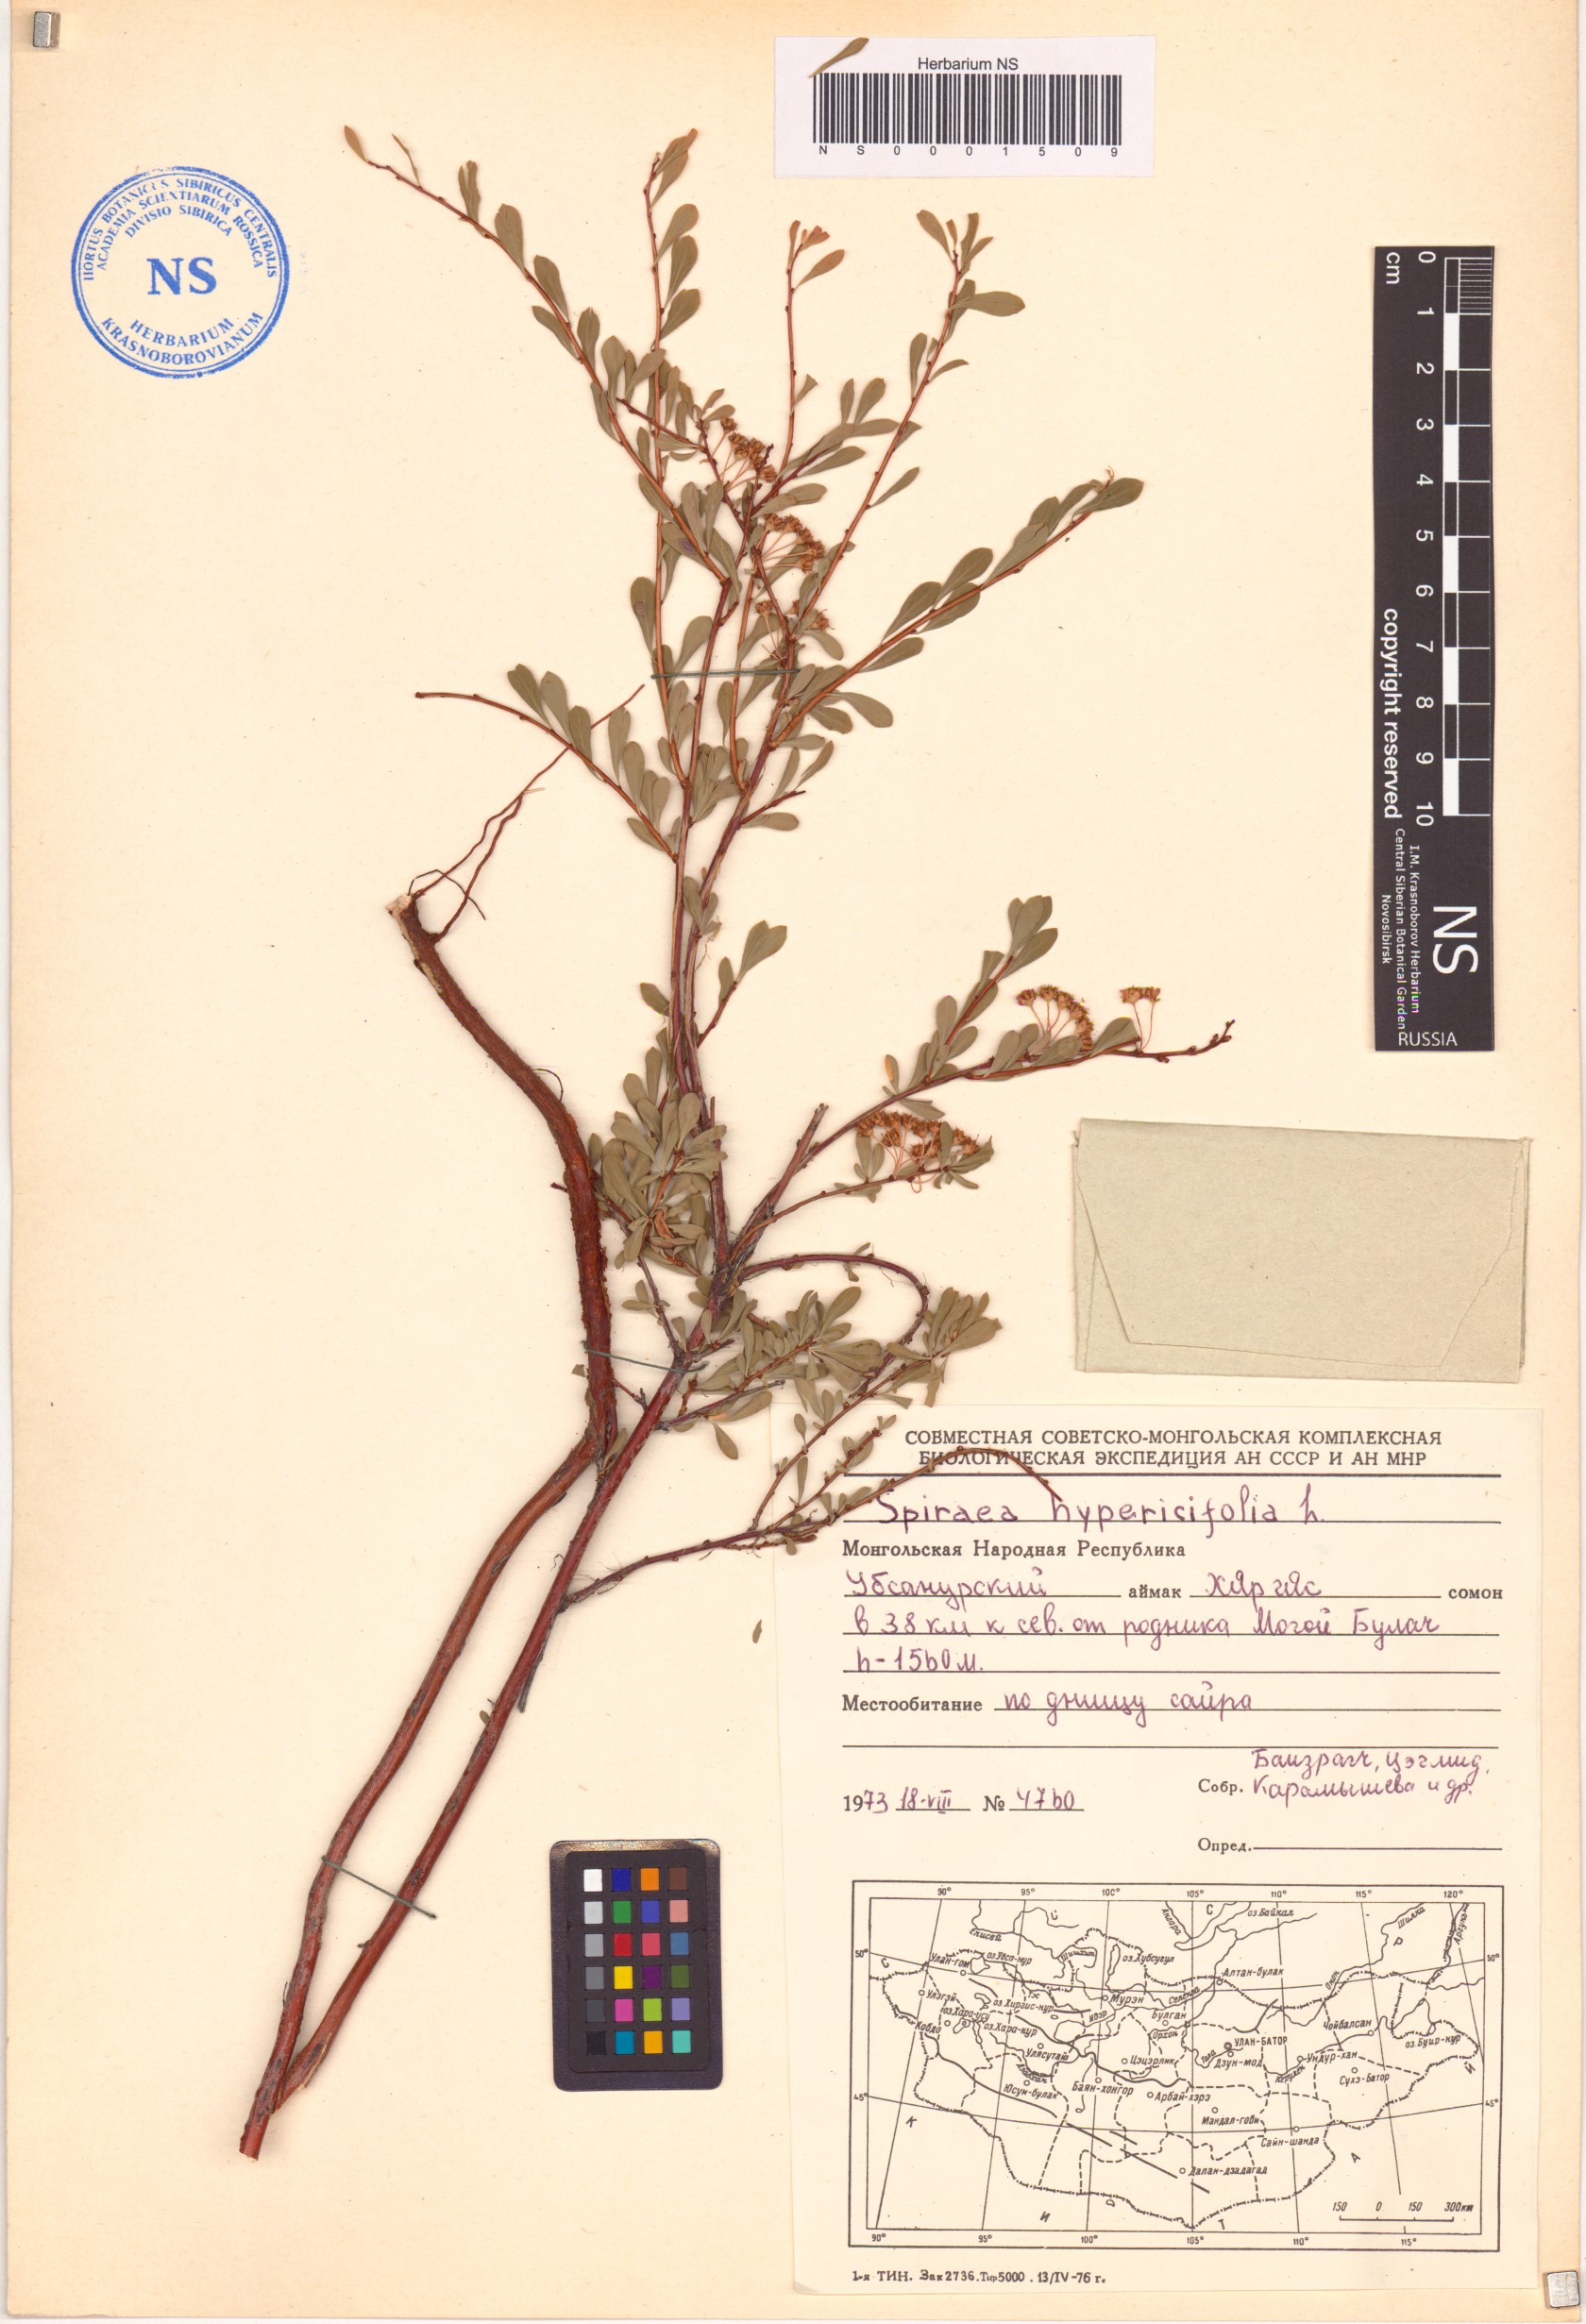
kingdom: Plantae
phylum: Tracheophyta
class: Magnoliopsida
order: Rosales
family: Rosaceae
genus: Spiraea
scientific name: Spiraea hypericifolia
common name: Iberian spirea
